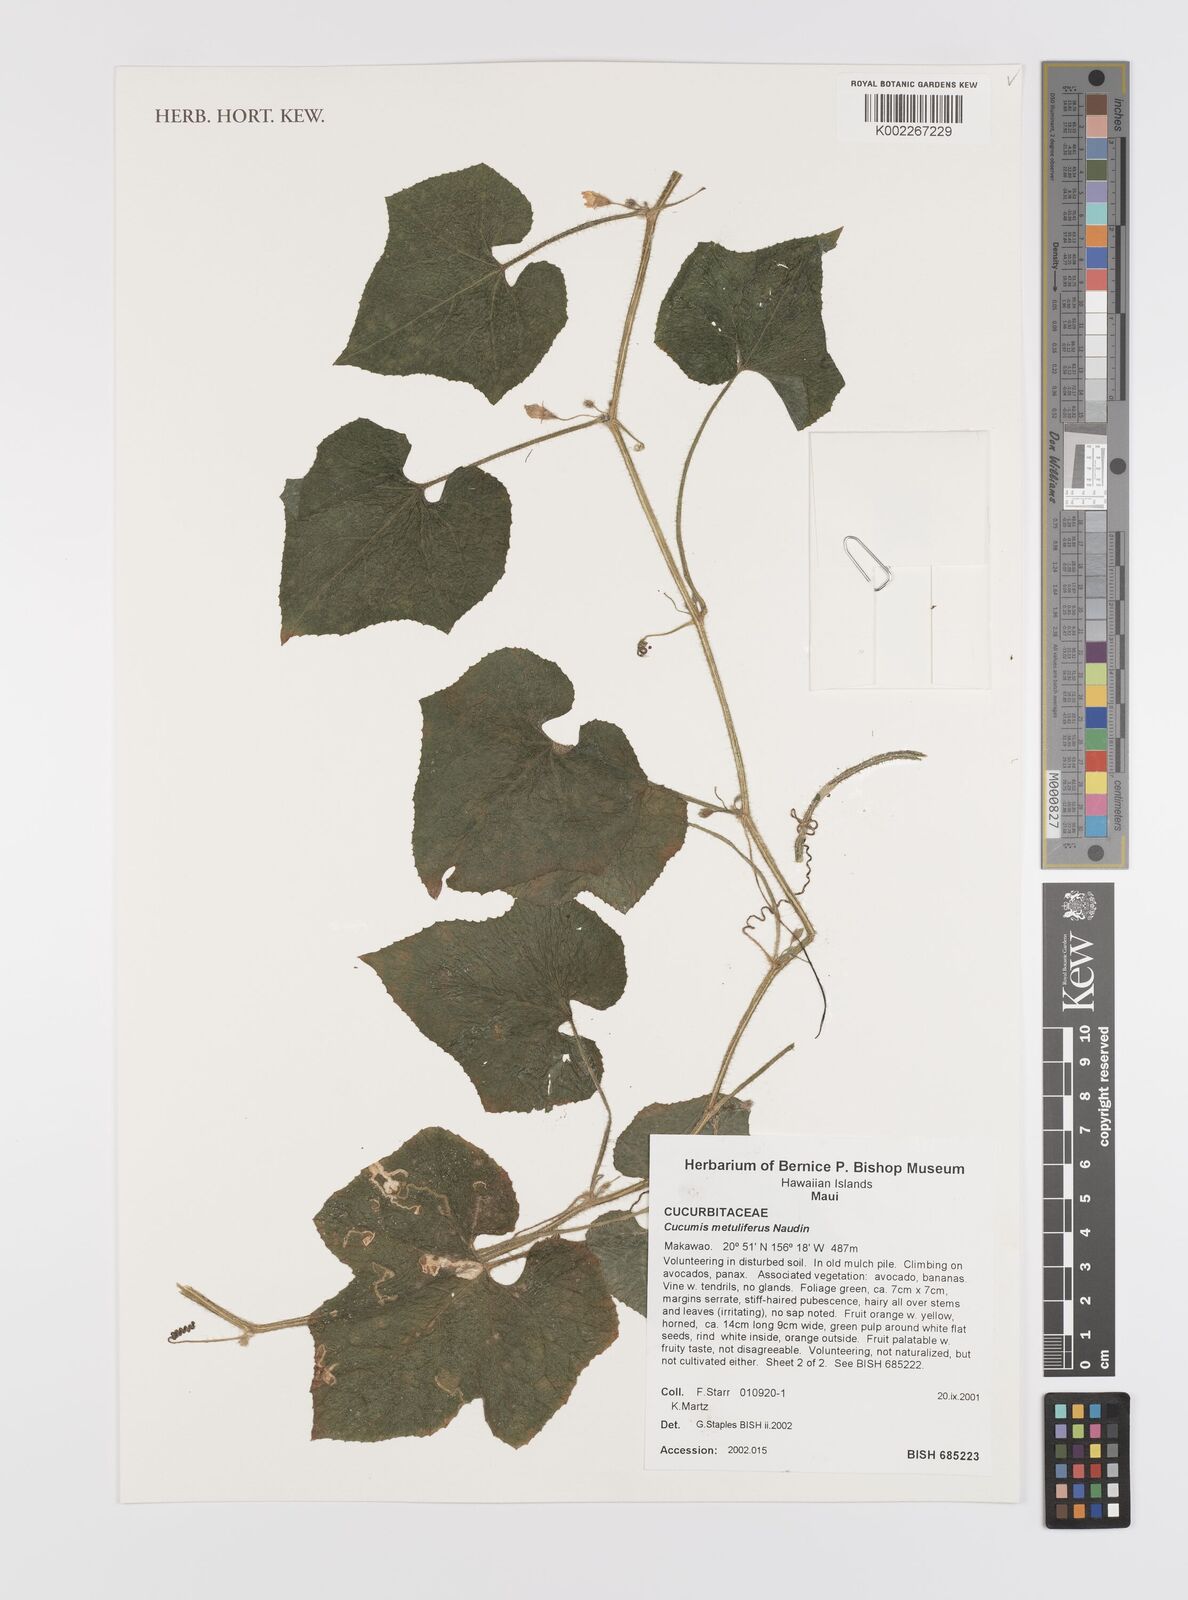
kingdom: Plantae
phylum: Tracheophyta
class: Magnoliopsida
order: Cucurbitales
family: Cucurbitaceae
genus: Cucumis
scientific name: Cucumis metuliferus
